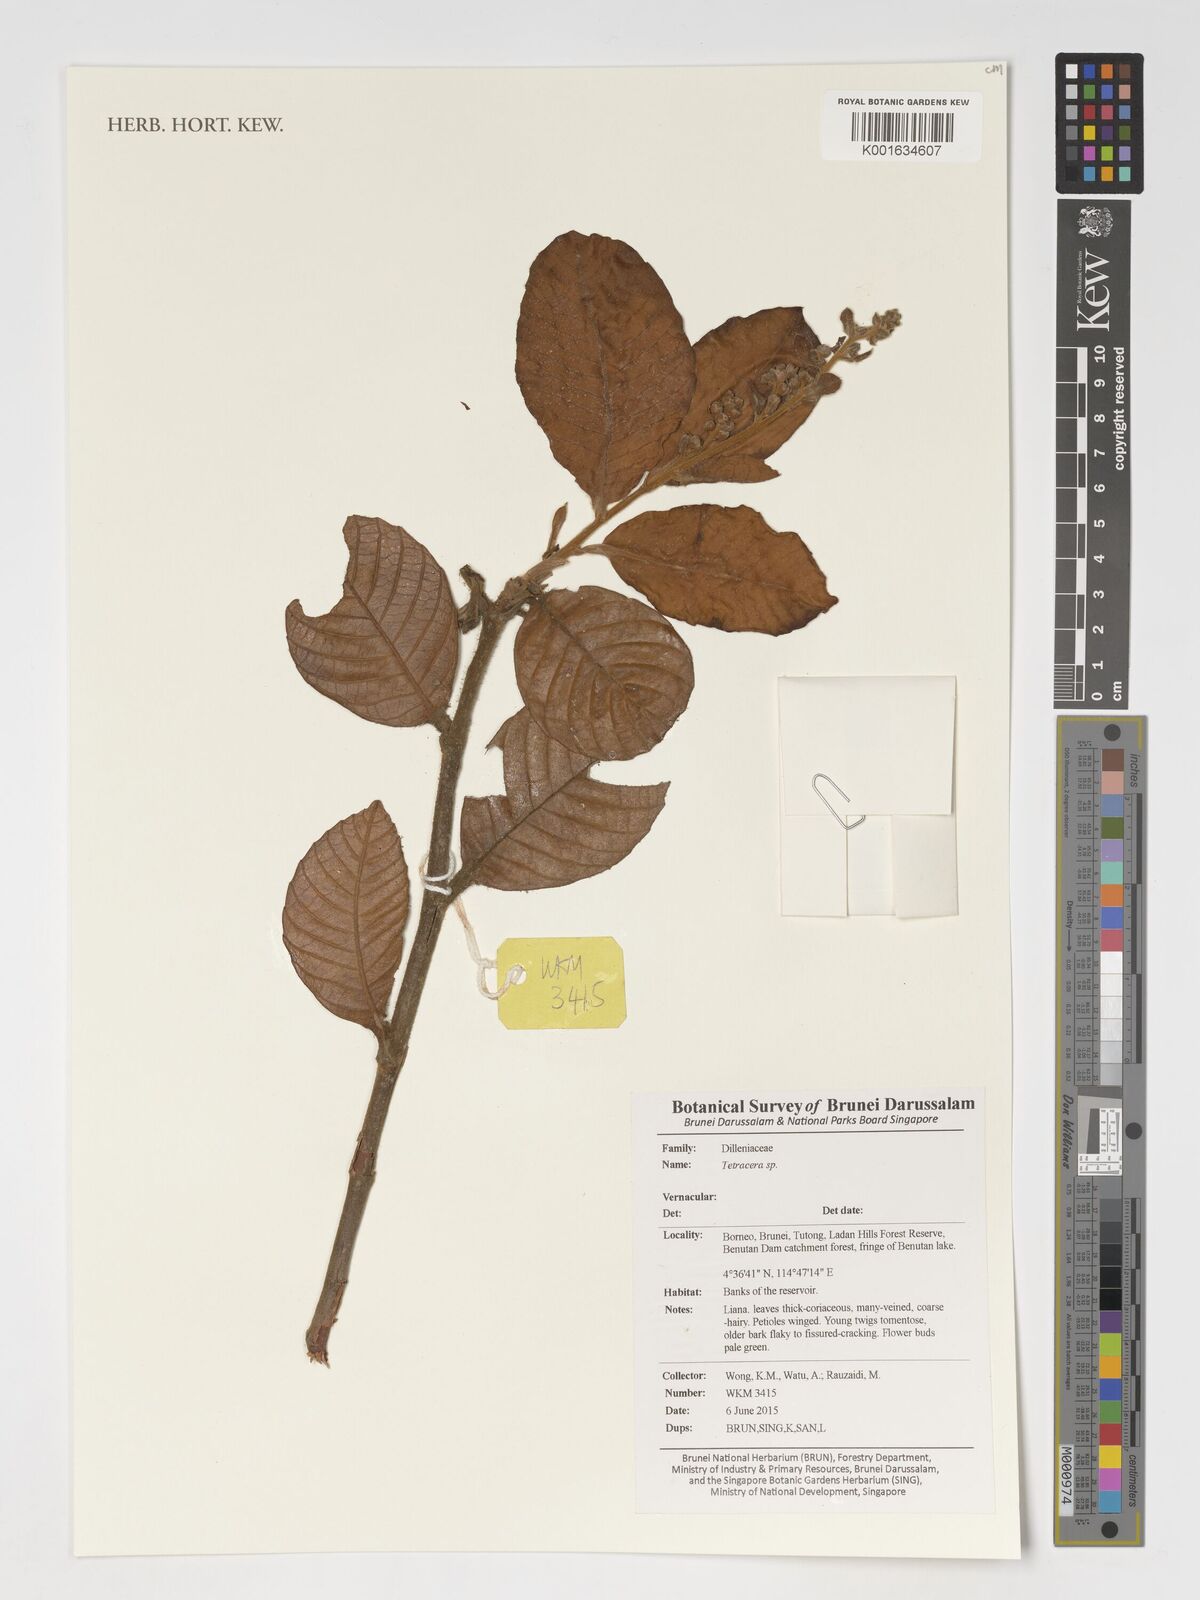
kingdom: Plantae
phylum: Tracheophyta
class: Magnoliopsida
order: Dilleniales
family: Dilleniaceae
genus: Tetracera
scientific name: Tetracera
